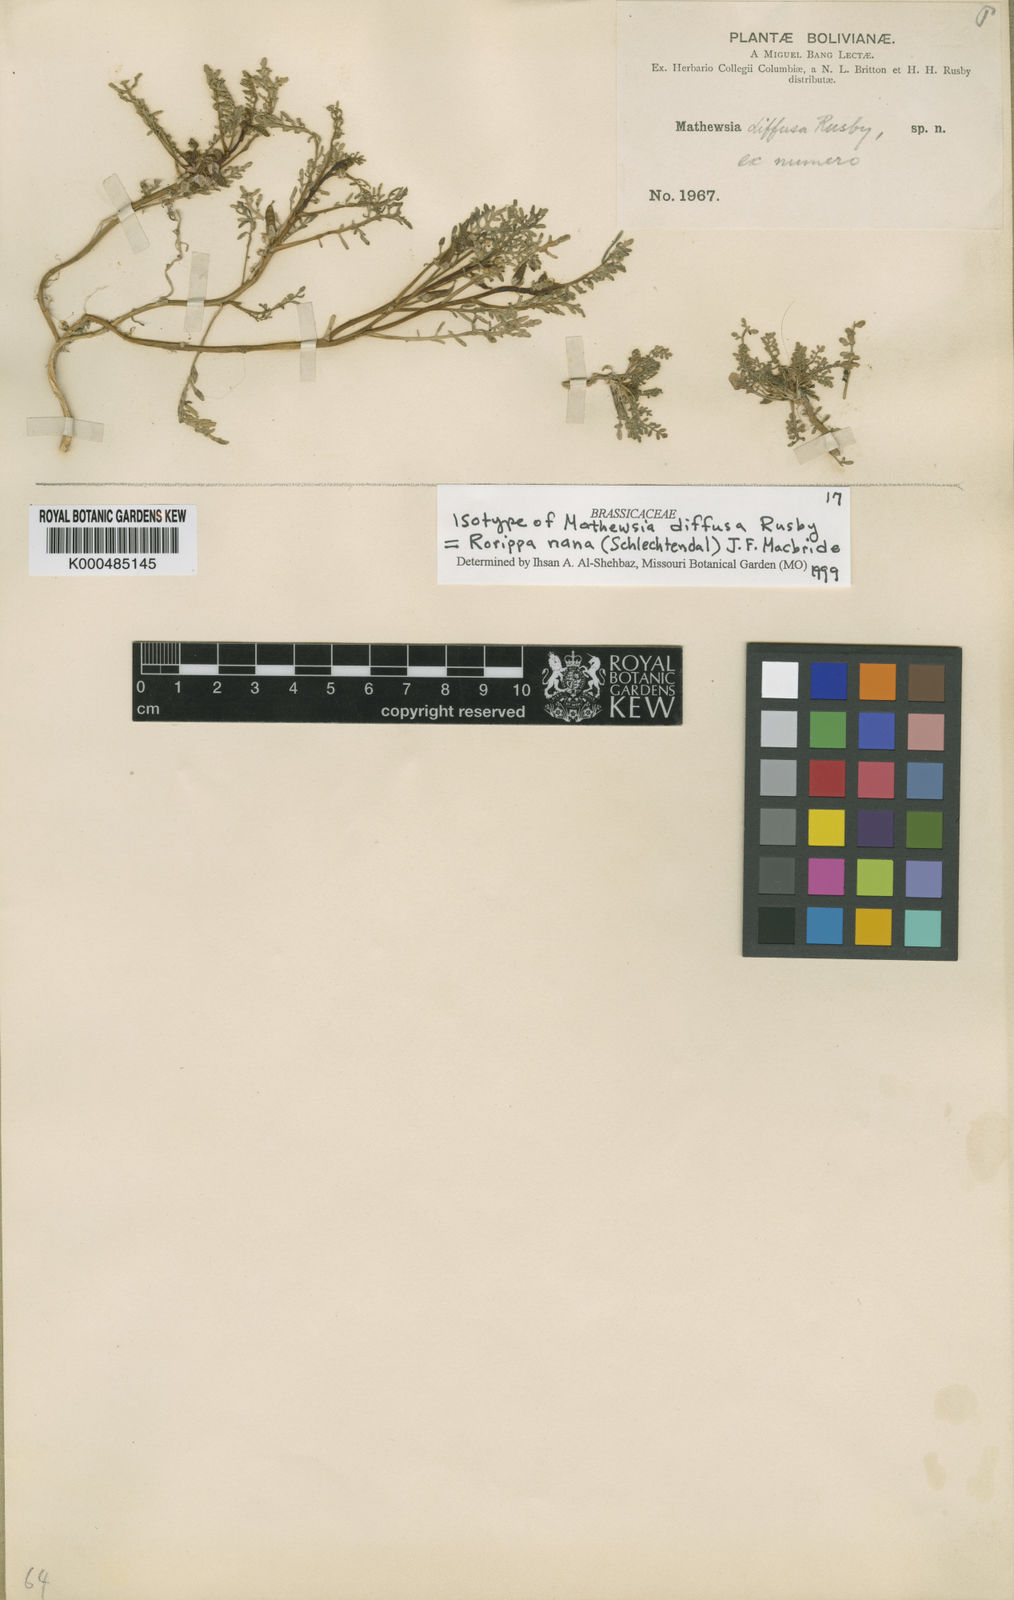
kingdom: Plantae
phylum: Tracheophyta
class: Magnoliopsida
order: Brassicales
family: Brassicaceae
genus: Rorippa
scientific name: Rorippa nana
